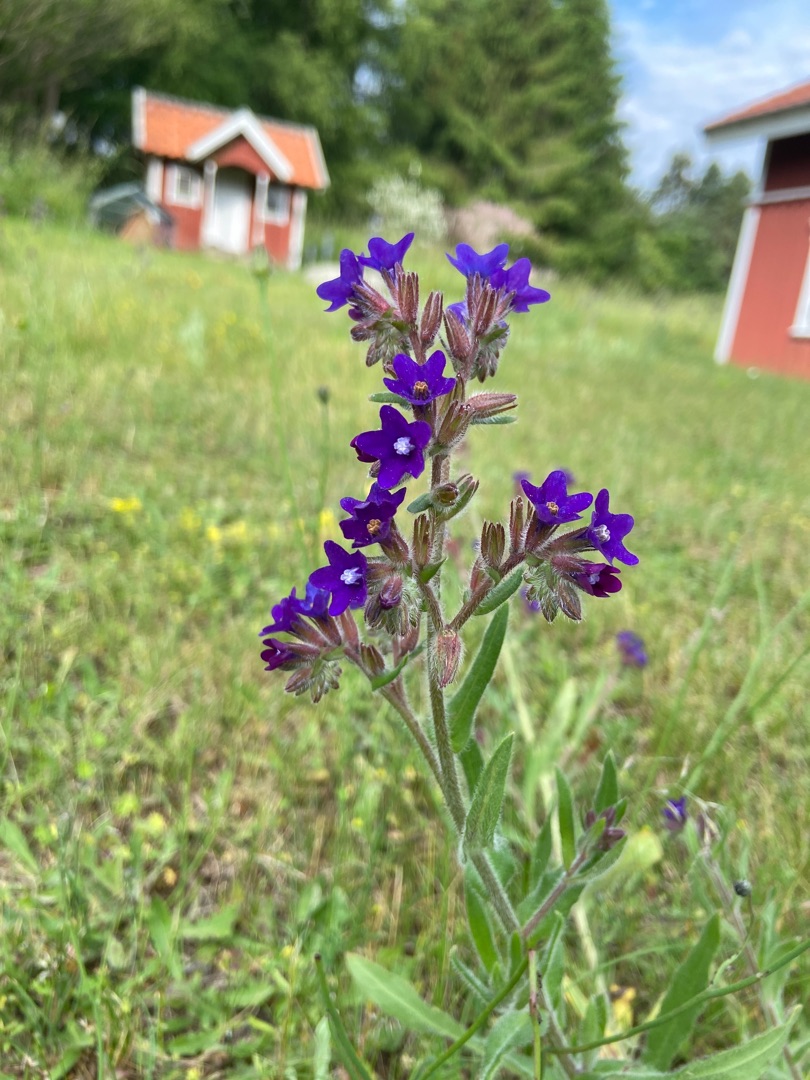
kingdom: Plantae
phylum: Tracheophyta
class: Magnoliopsida
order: Boraginales
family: Boraginaceae
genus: Anchusa
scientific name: Anchusa officinalis
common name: Læge-oksetunge
